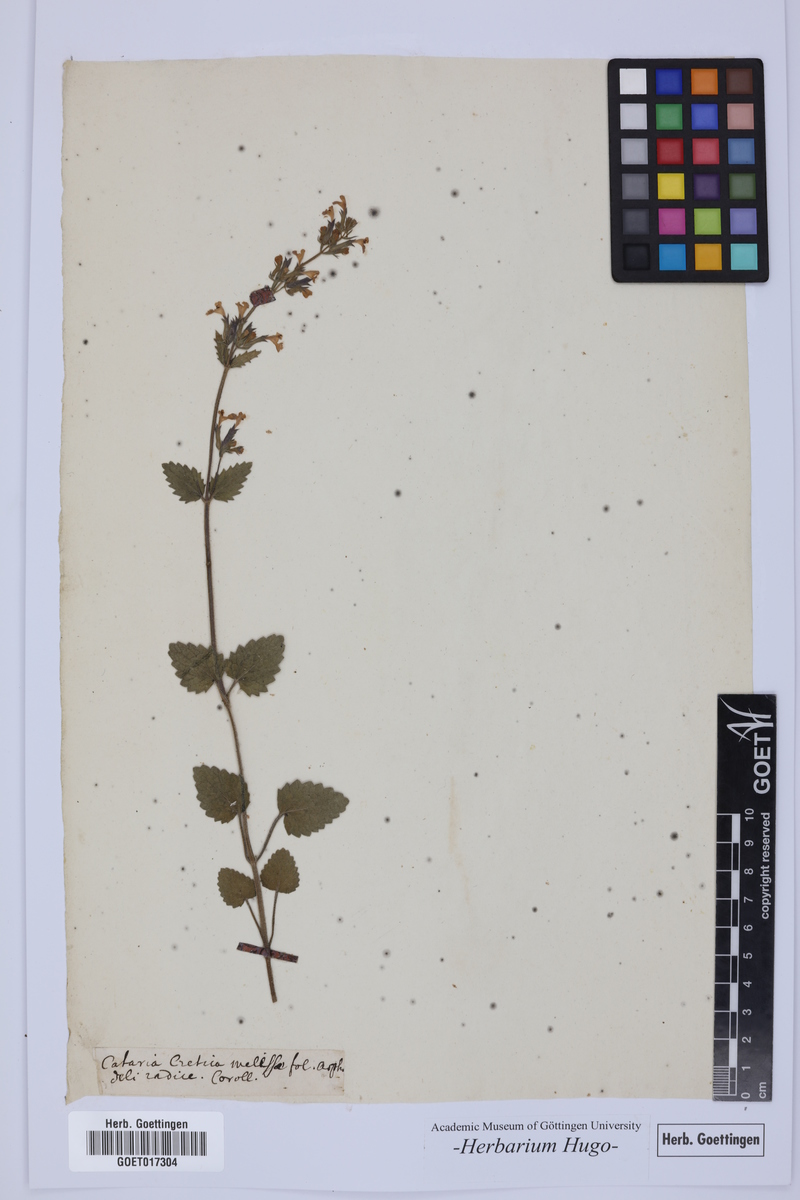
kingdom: Plantae
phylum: Tracheophyta
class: Magnoliopsida
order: Lamiales
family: Lamiaceae
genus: Cataria
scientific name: Cataria
